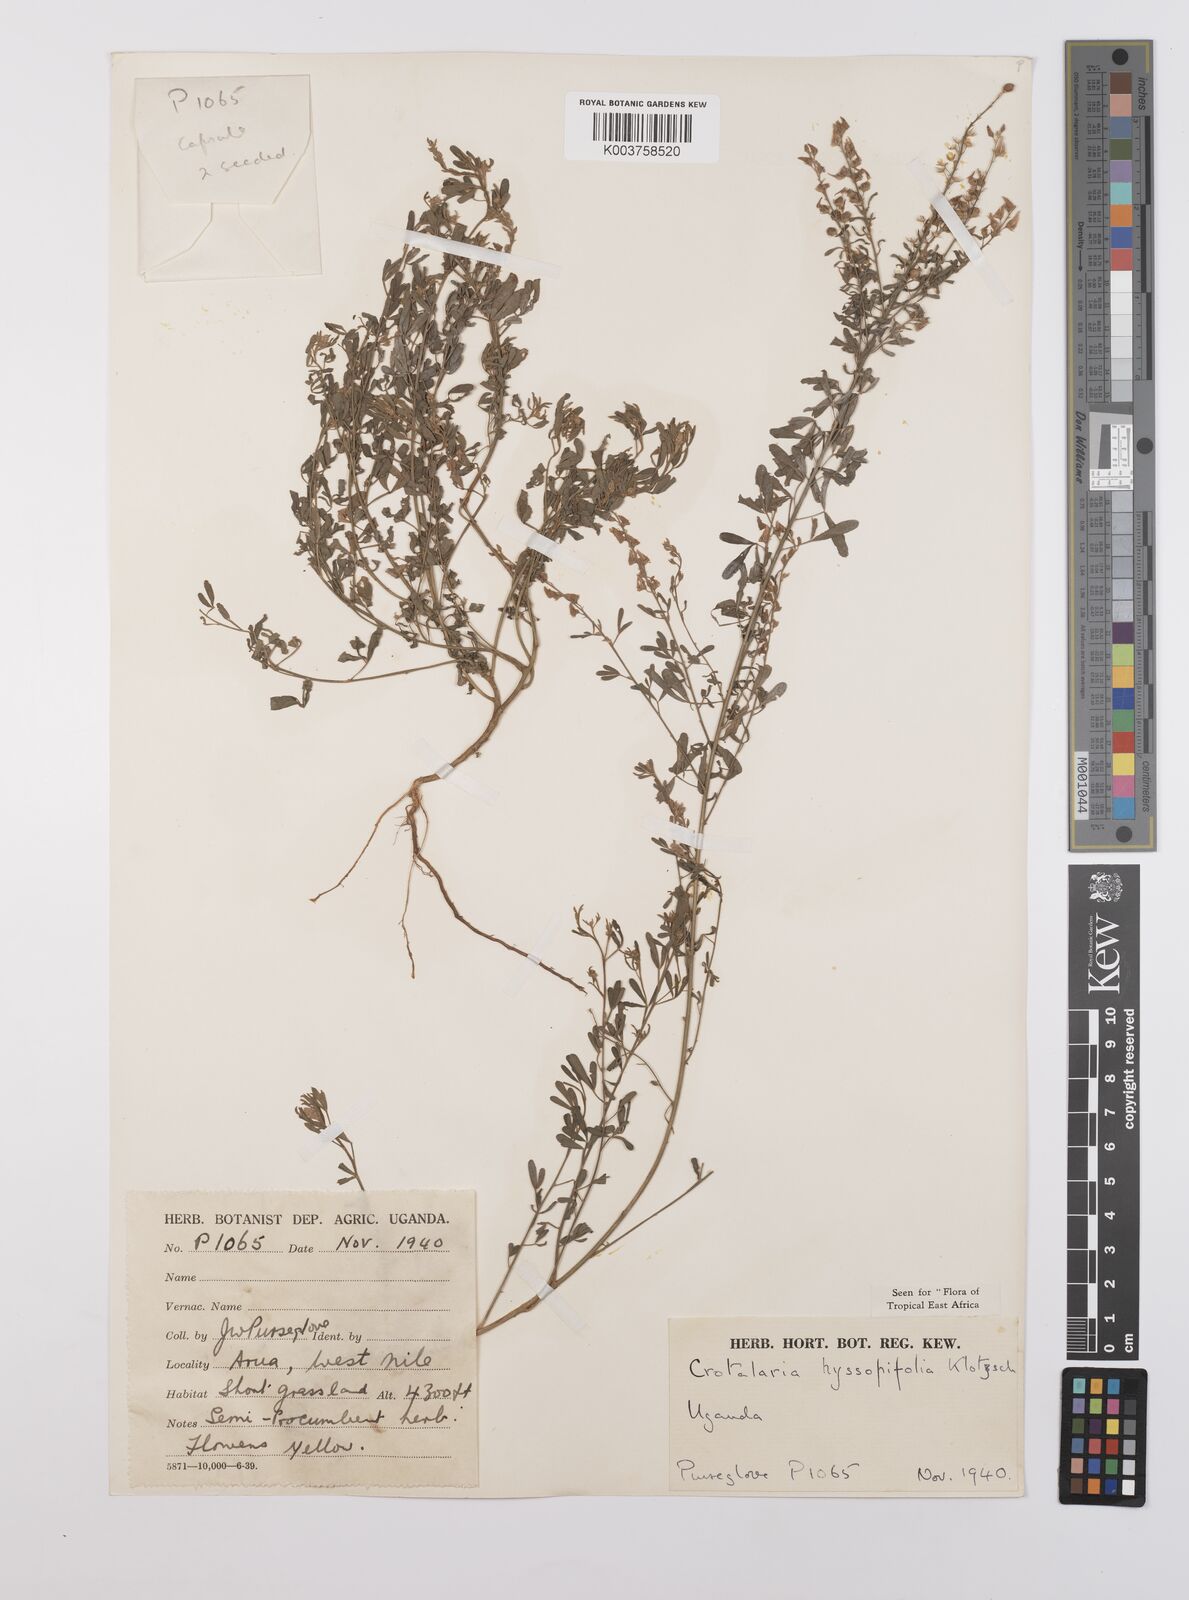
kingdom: Plantae
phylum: Tracheophyta
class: Magnoliopsida
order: Fabales
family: Fabaceae
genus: Crotalaria
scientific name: Crotalaria hyssopifolia
